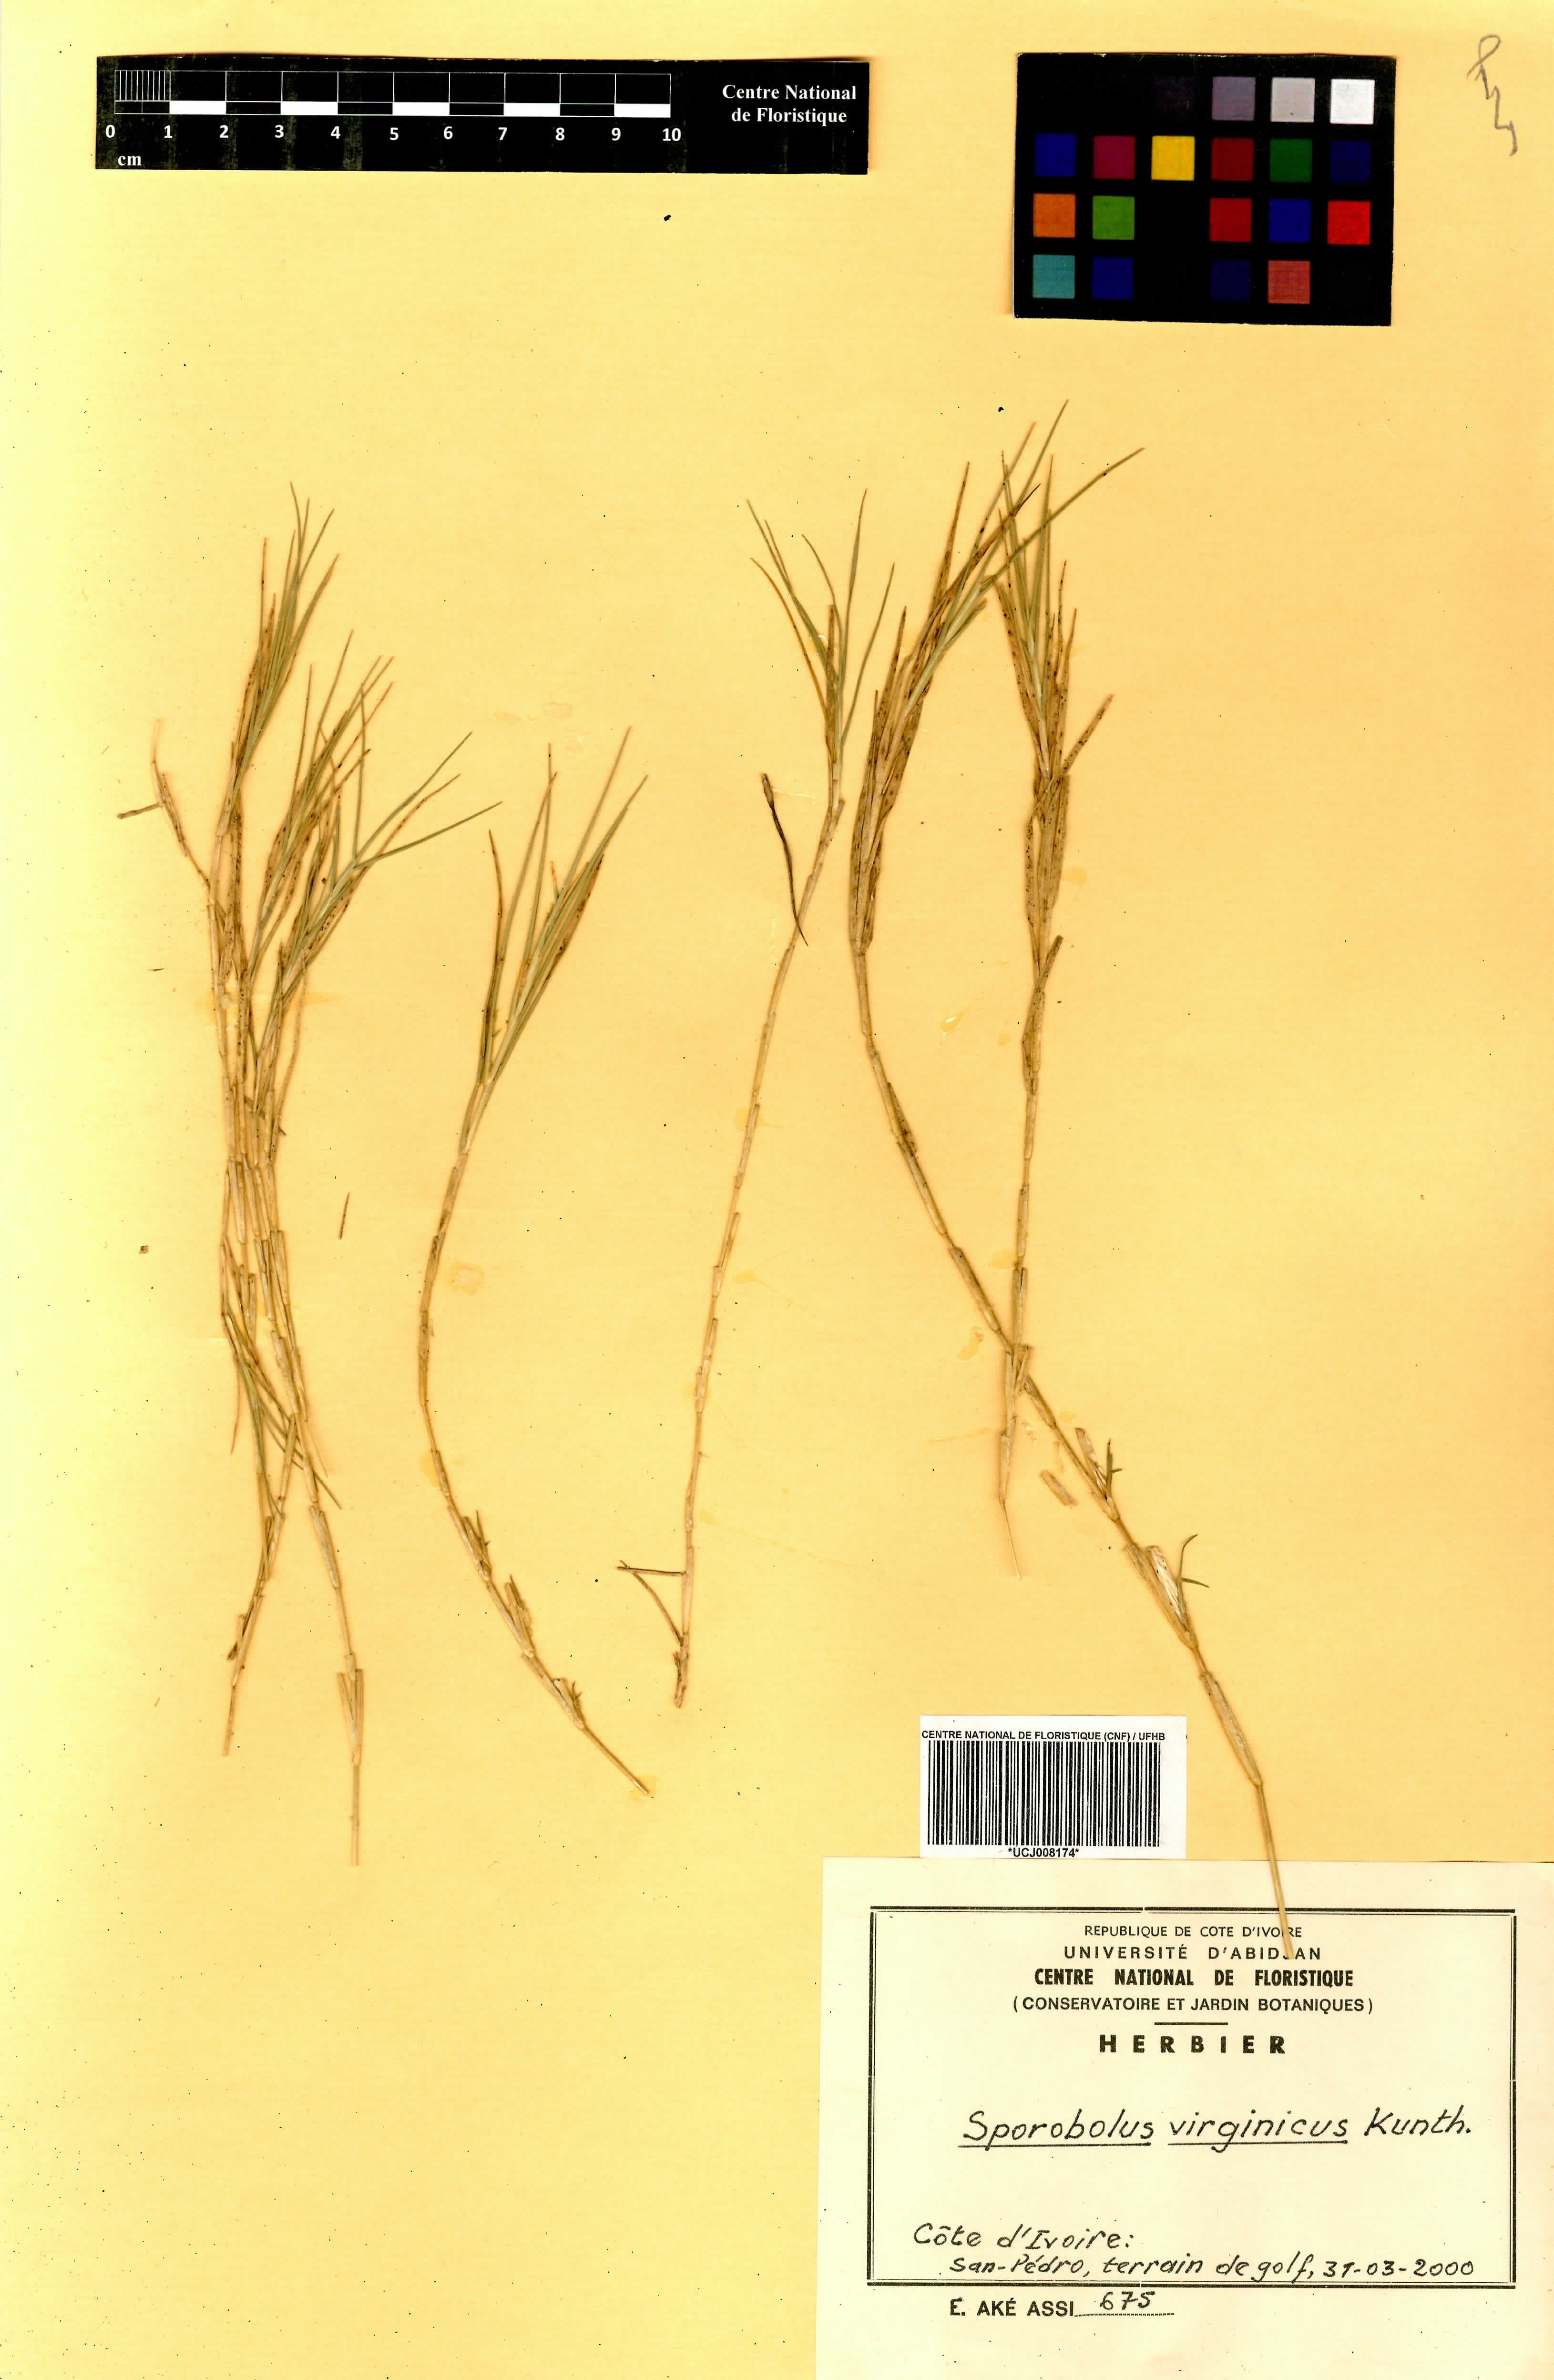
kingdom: Plantae
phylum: Tracheophyta
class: Liliopsida
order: Poales
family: Poaceae
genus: Sporobolus
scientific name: Sporobolus virginicus
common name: Beach dropseed
